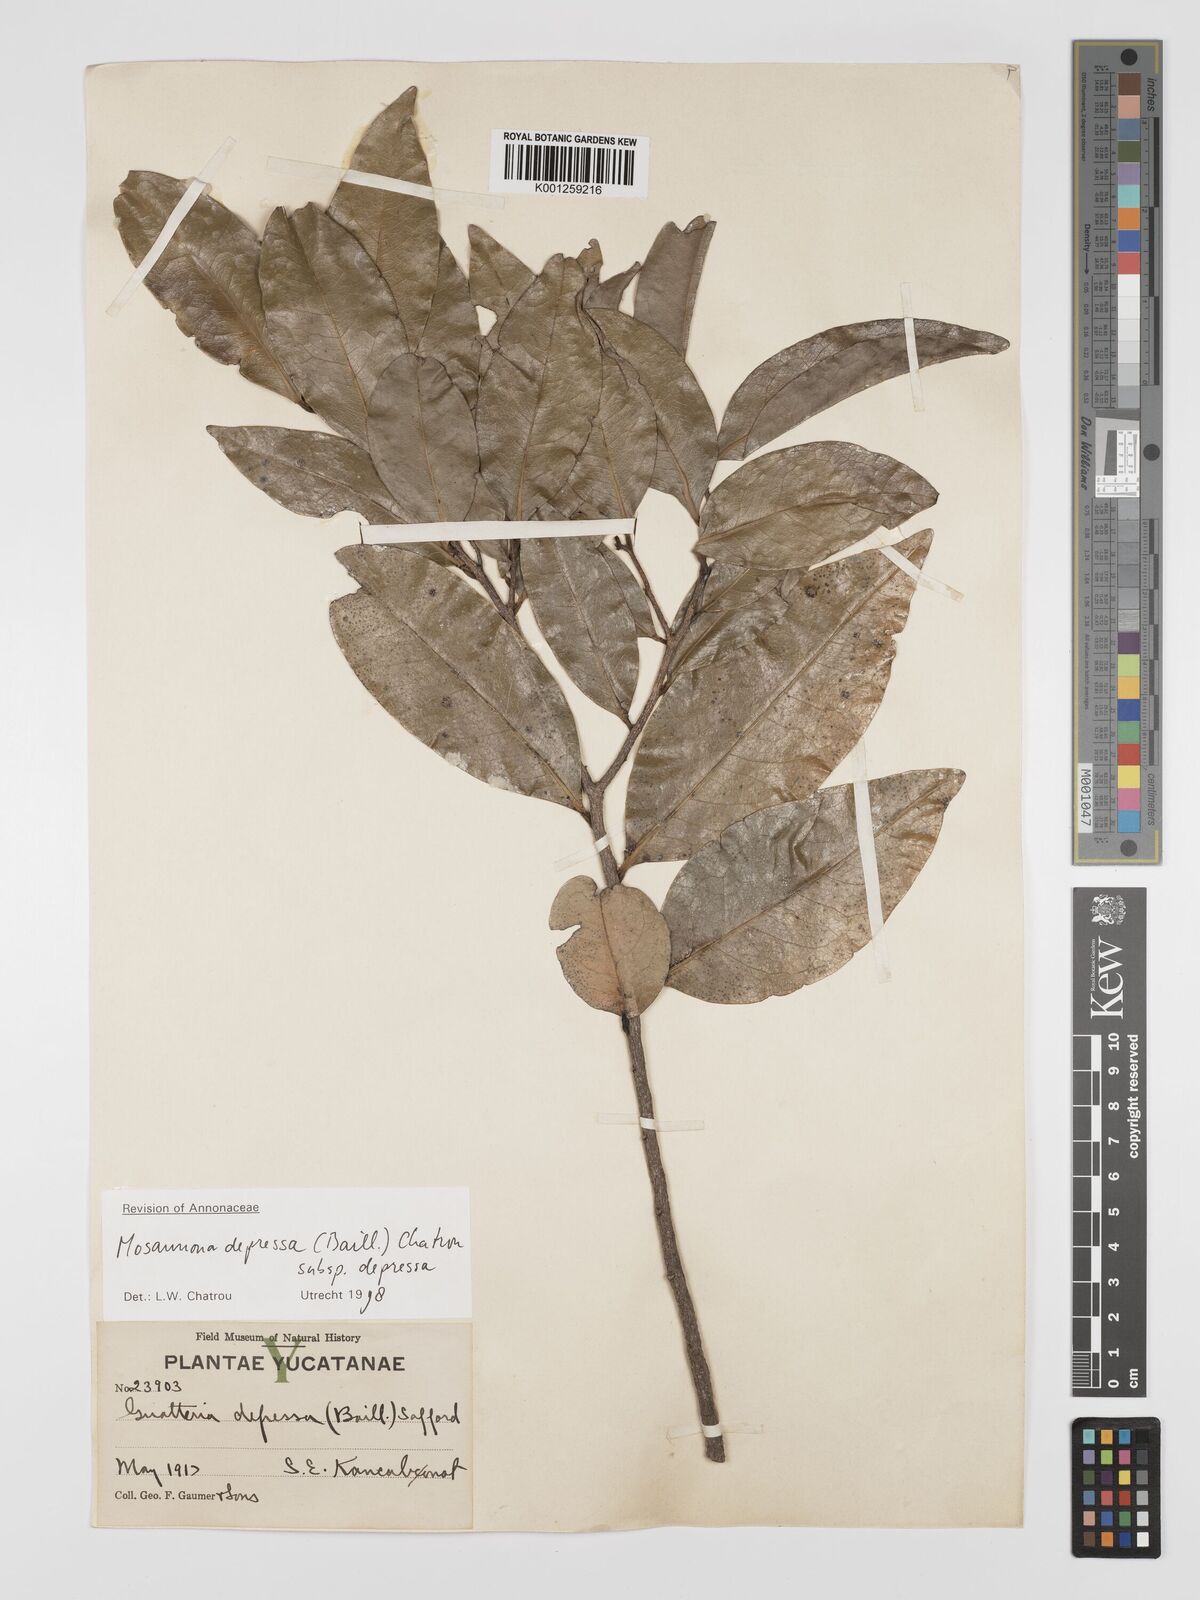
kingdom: Plantae
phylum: Tracheophyta
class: Magnoliopsida
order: Magnoliales
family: Annonaceae
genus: Mosannona
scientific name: Mosannona depressa
